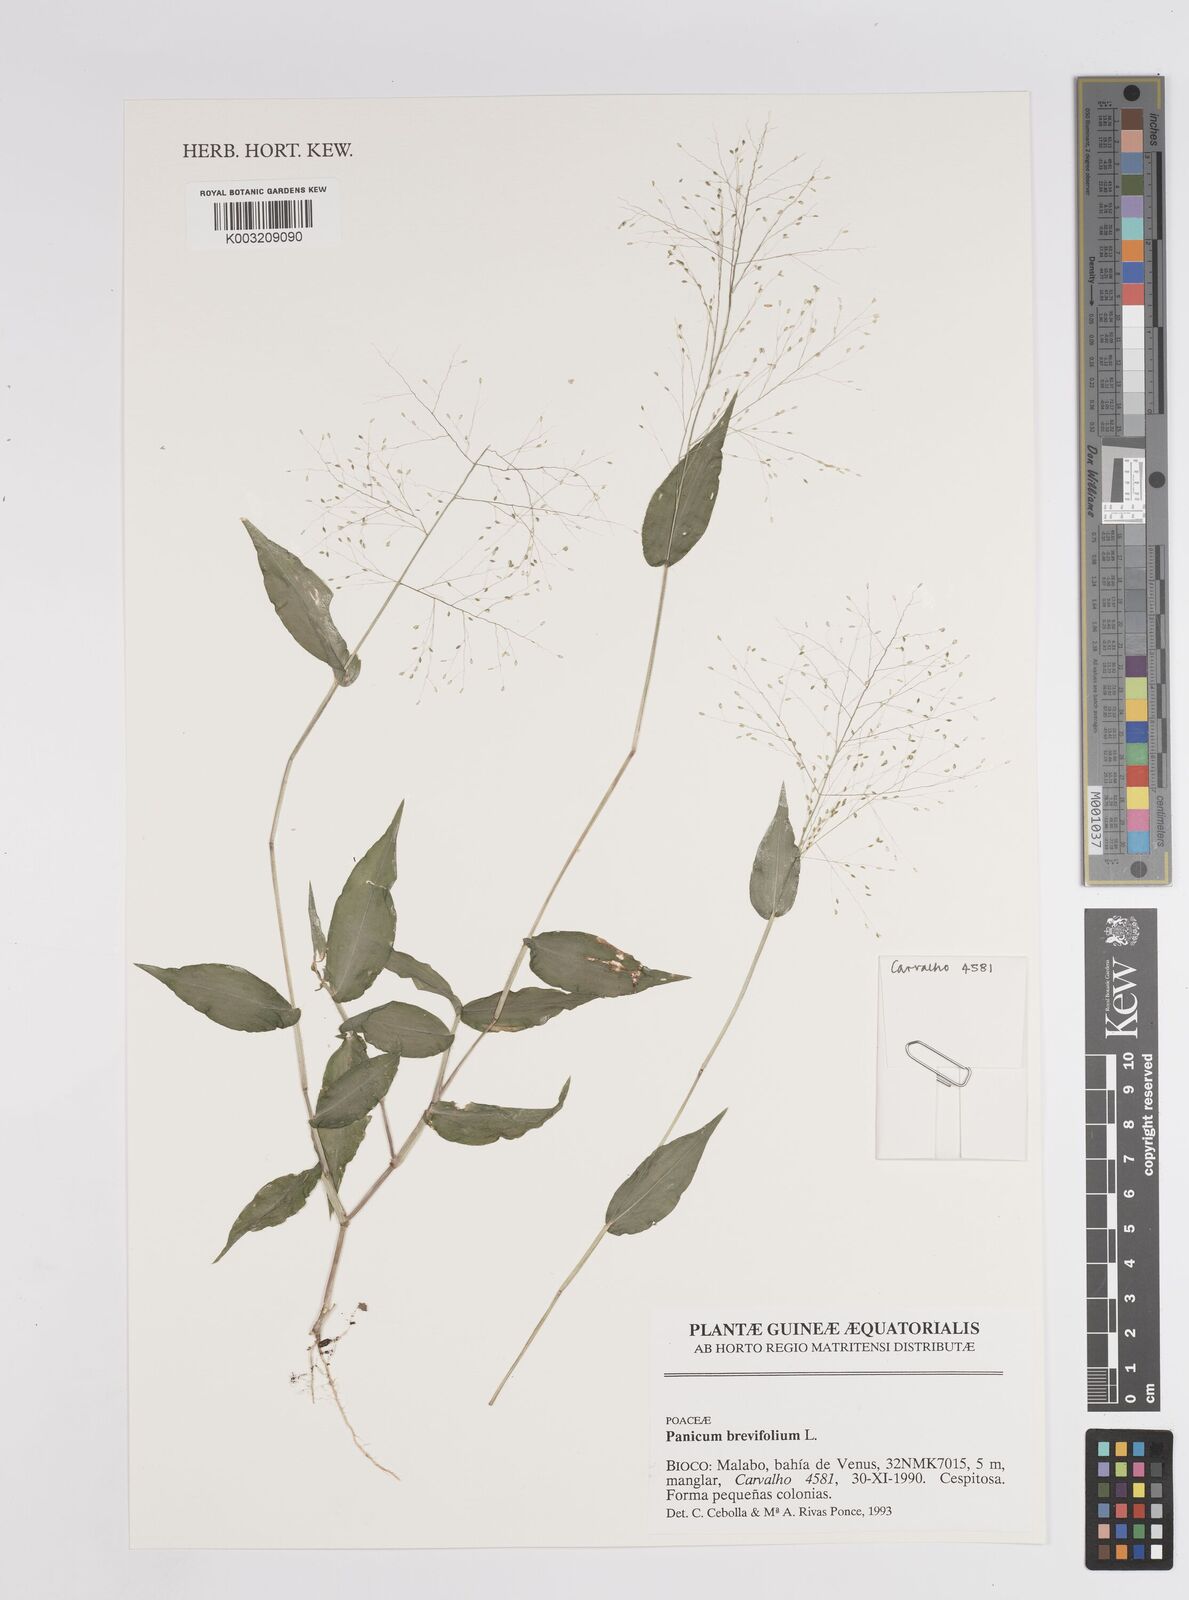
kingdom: Plantae
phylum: Tracheophyta
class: Liliopsida
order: Poales
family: Poaceae
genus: Panicum
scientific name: Panicum brevifolium
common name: Shortleaf panic grass
